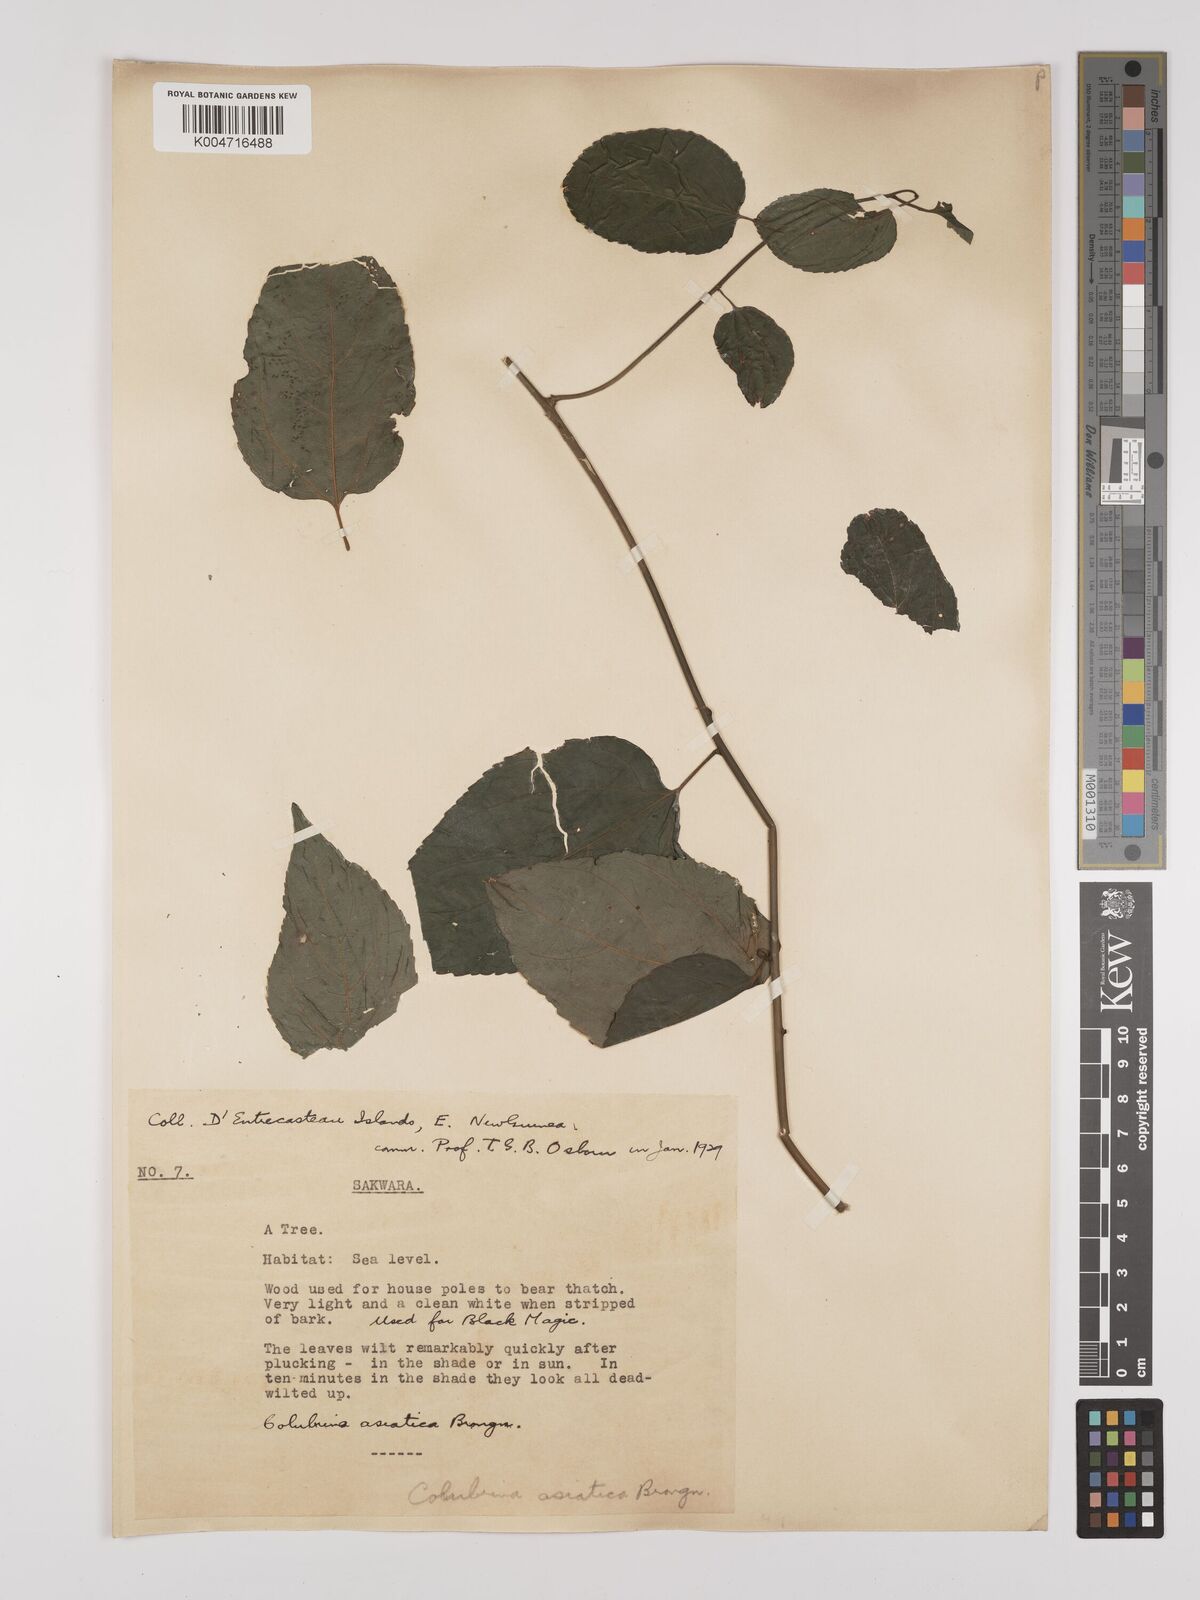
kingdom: Plantae
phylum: Tracheophyta
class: Magnoliopsida
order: Rosales
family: Rhamnaceae
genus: Colubrina
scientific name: Colubrina asiatica
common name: Asian nakedwood
